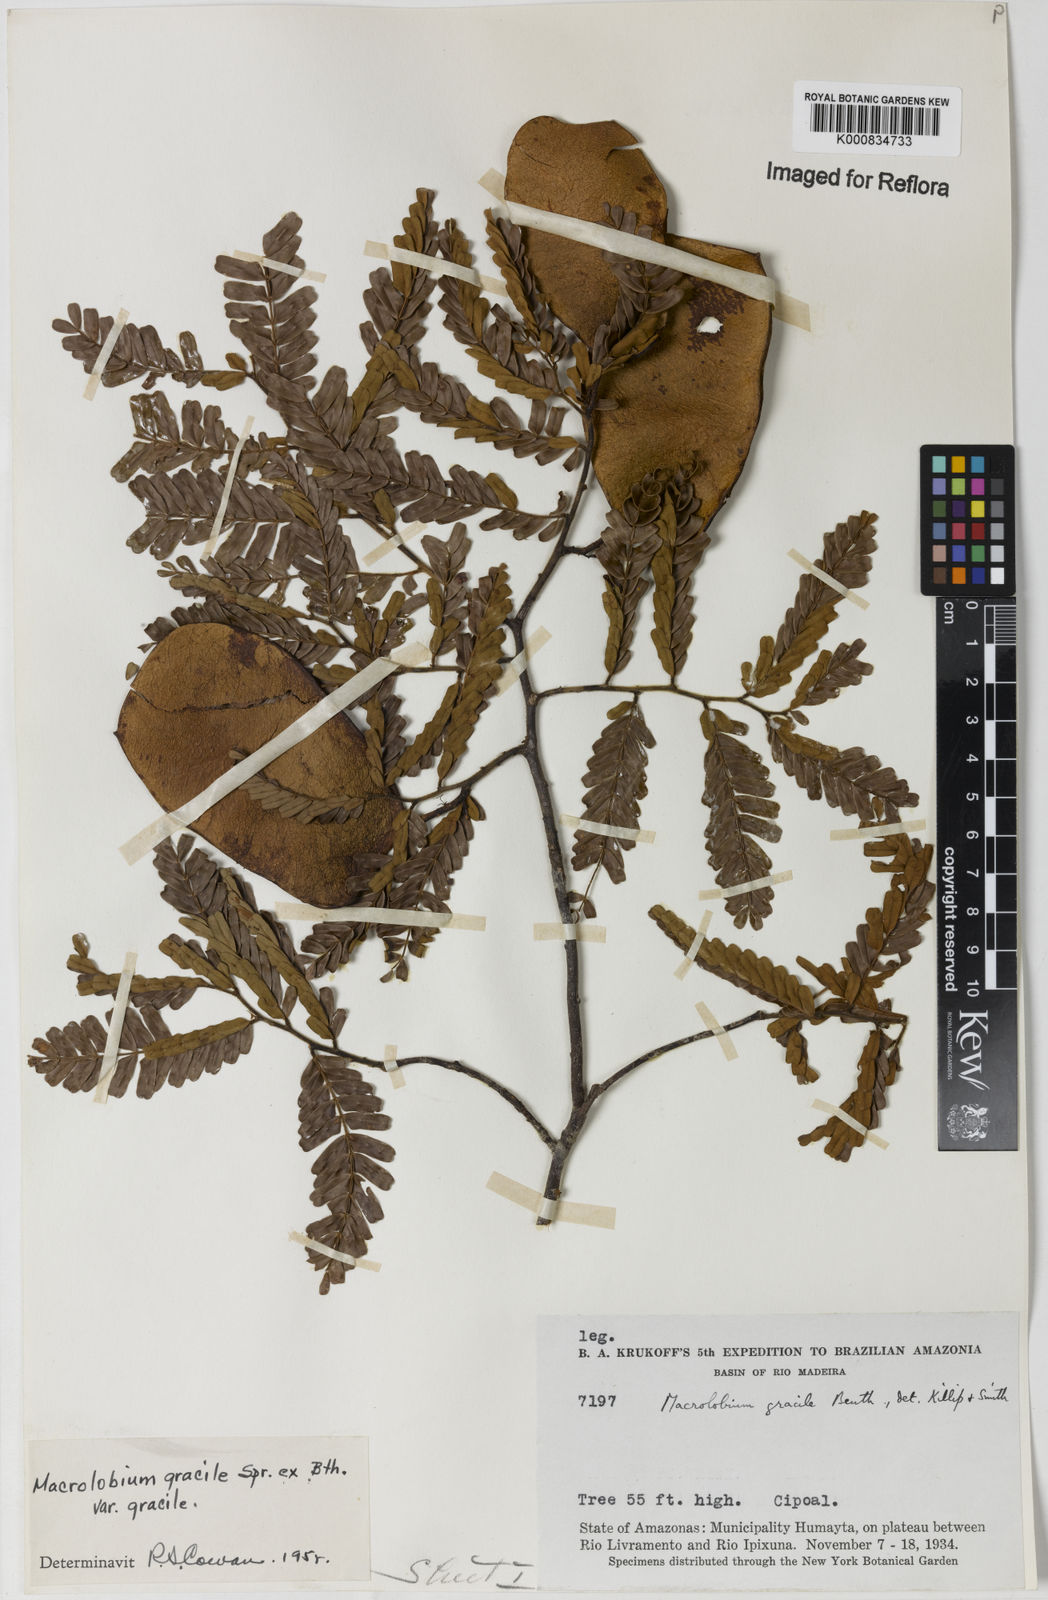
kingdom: Plantae
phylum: Tracheophyta
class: Magnoliopsida
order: Fabales
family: Fabaceae
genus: Macrolobium
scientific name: Macrolobium
